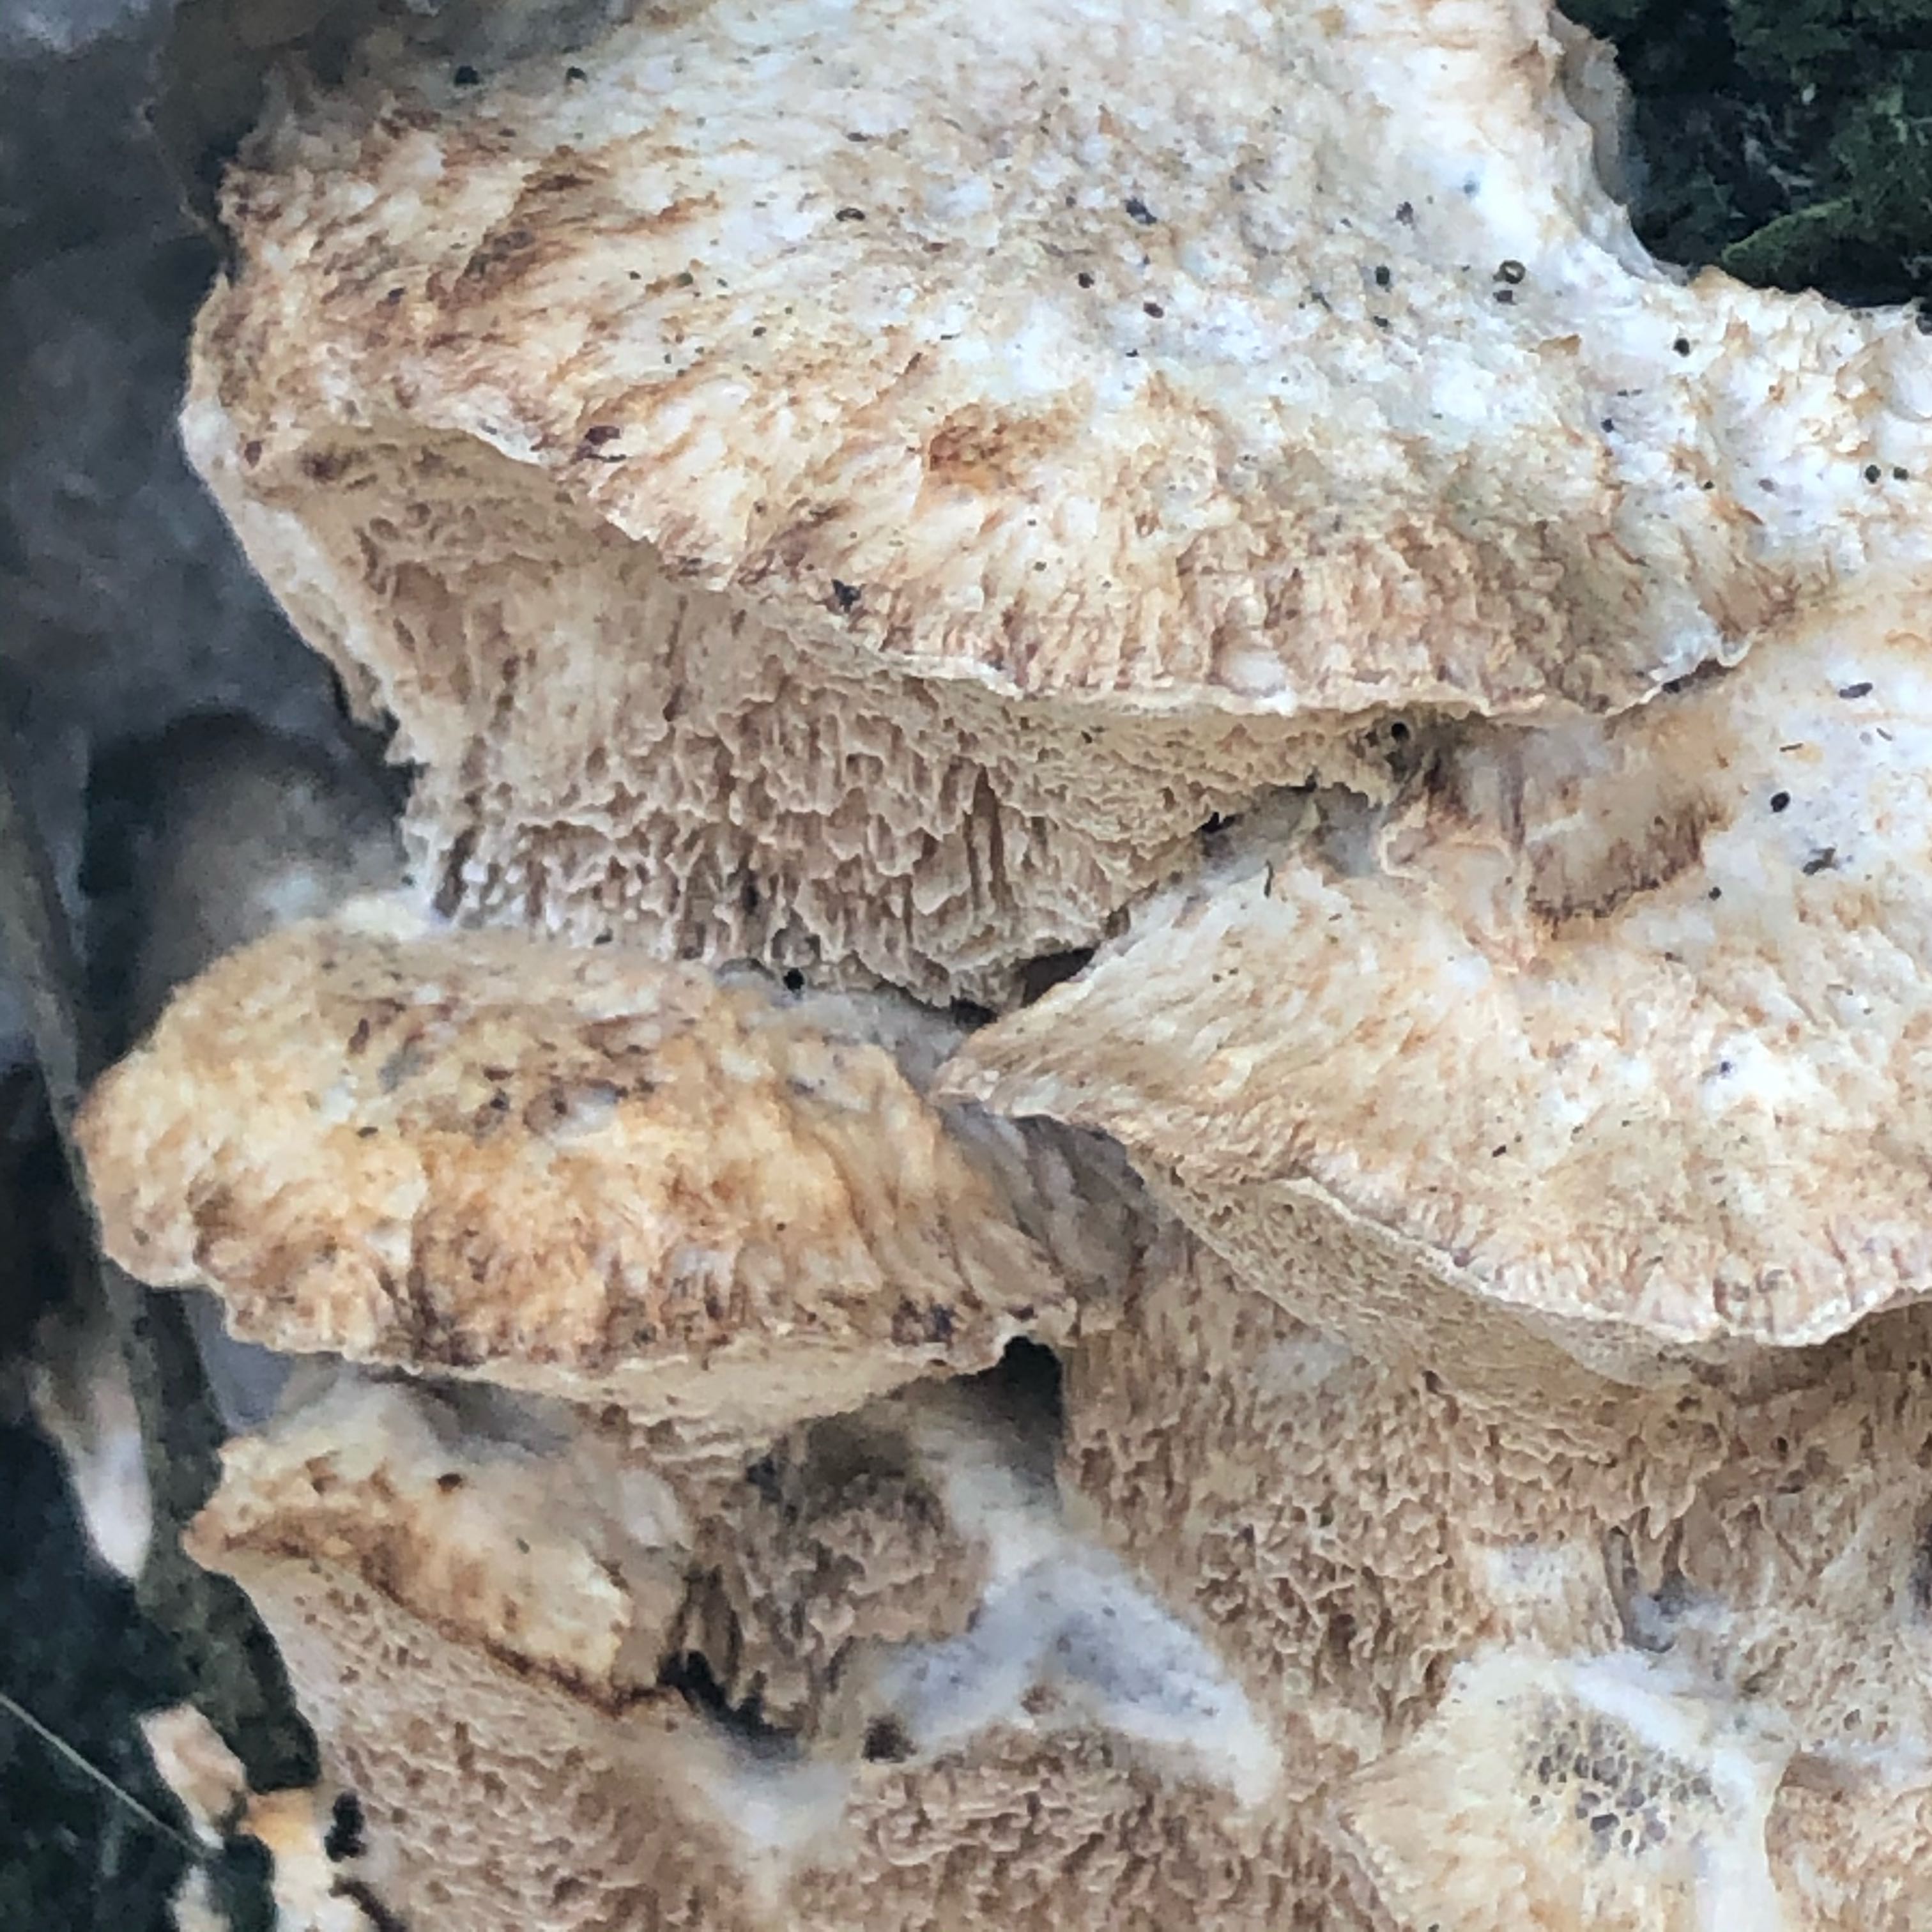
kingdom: Fungi
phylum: Basidiomycota
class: Agaricomycetes
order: Polyporales
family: Phanerochaetaceae
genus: Bjerkandera
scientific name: Bjerkandera fumosa
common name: grågul sodporesvamp
